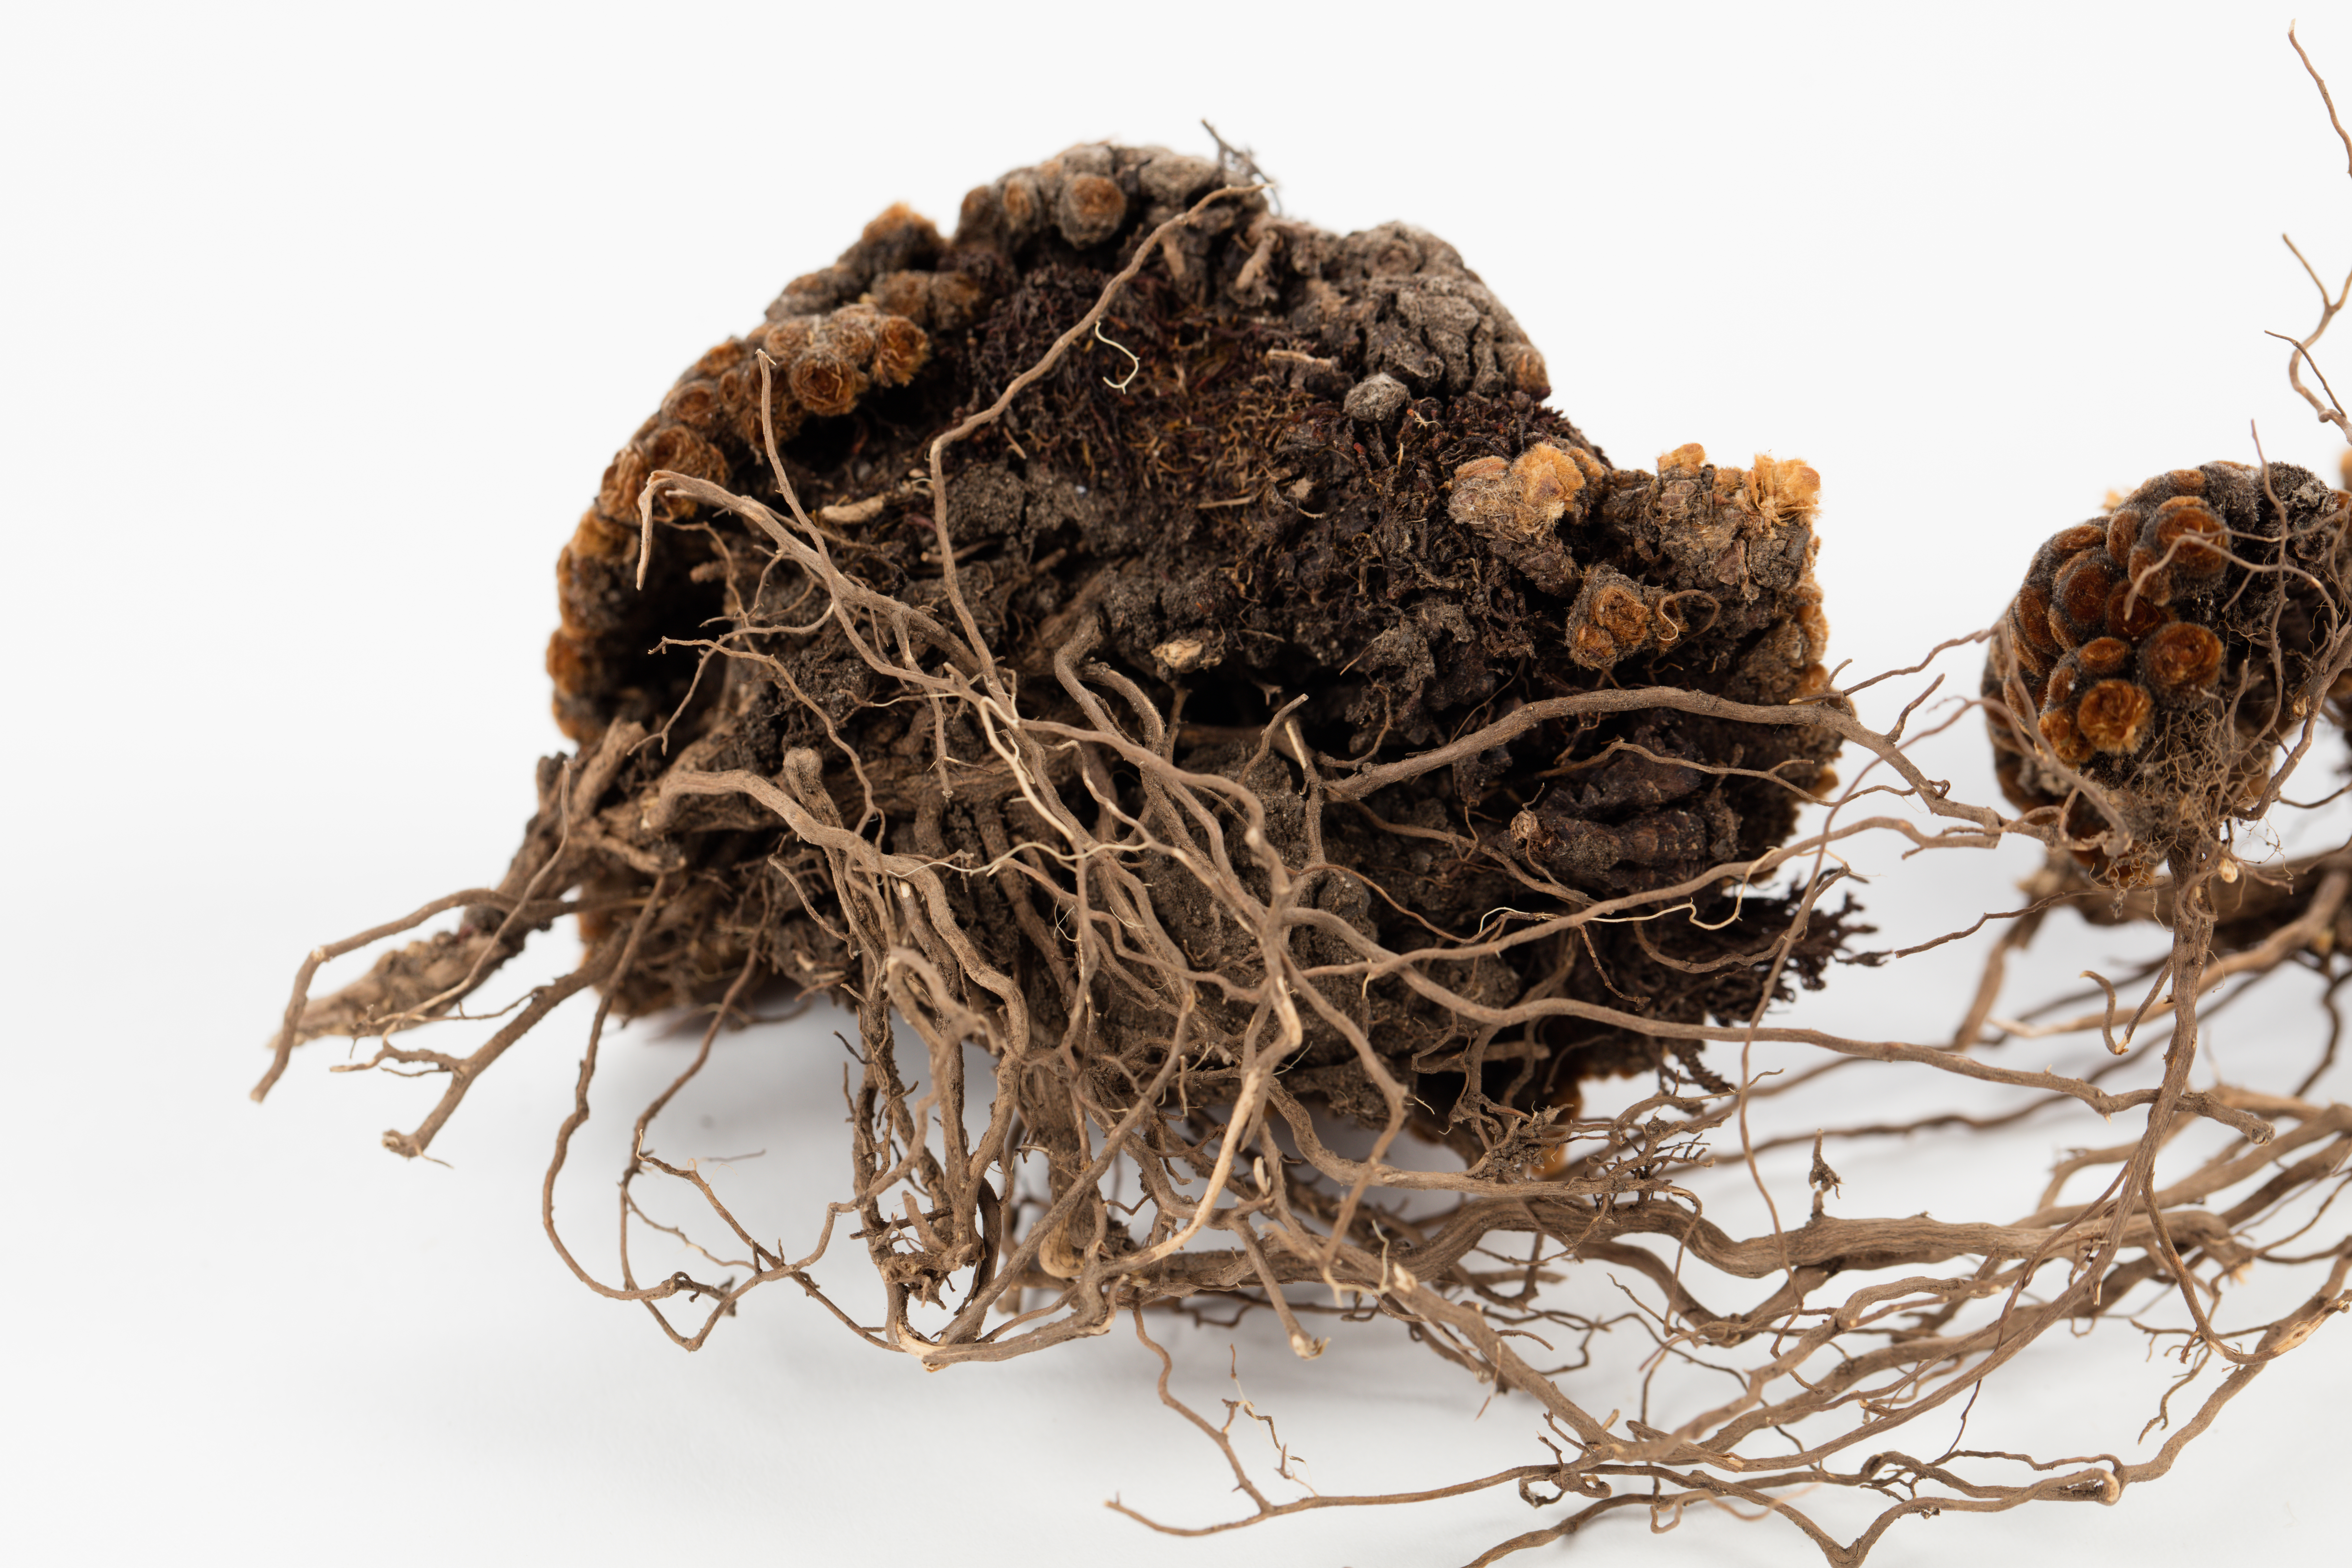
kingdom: Plantae
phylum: Tracheophyta
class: Magnoliopsida
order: Asterales
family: Asteraceae
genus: Raoulia
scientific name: Raoulia rubra
